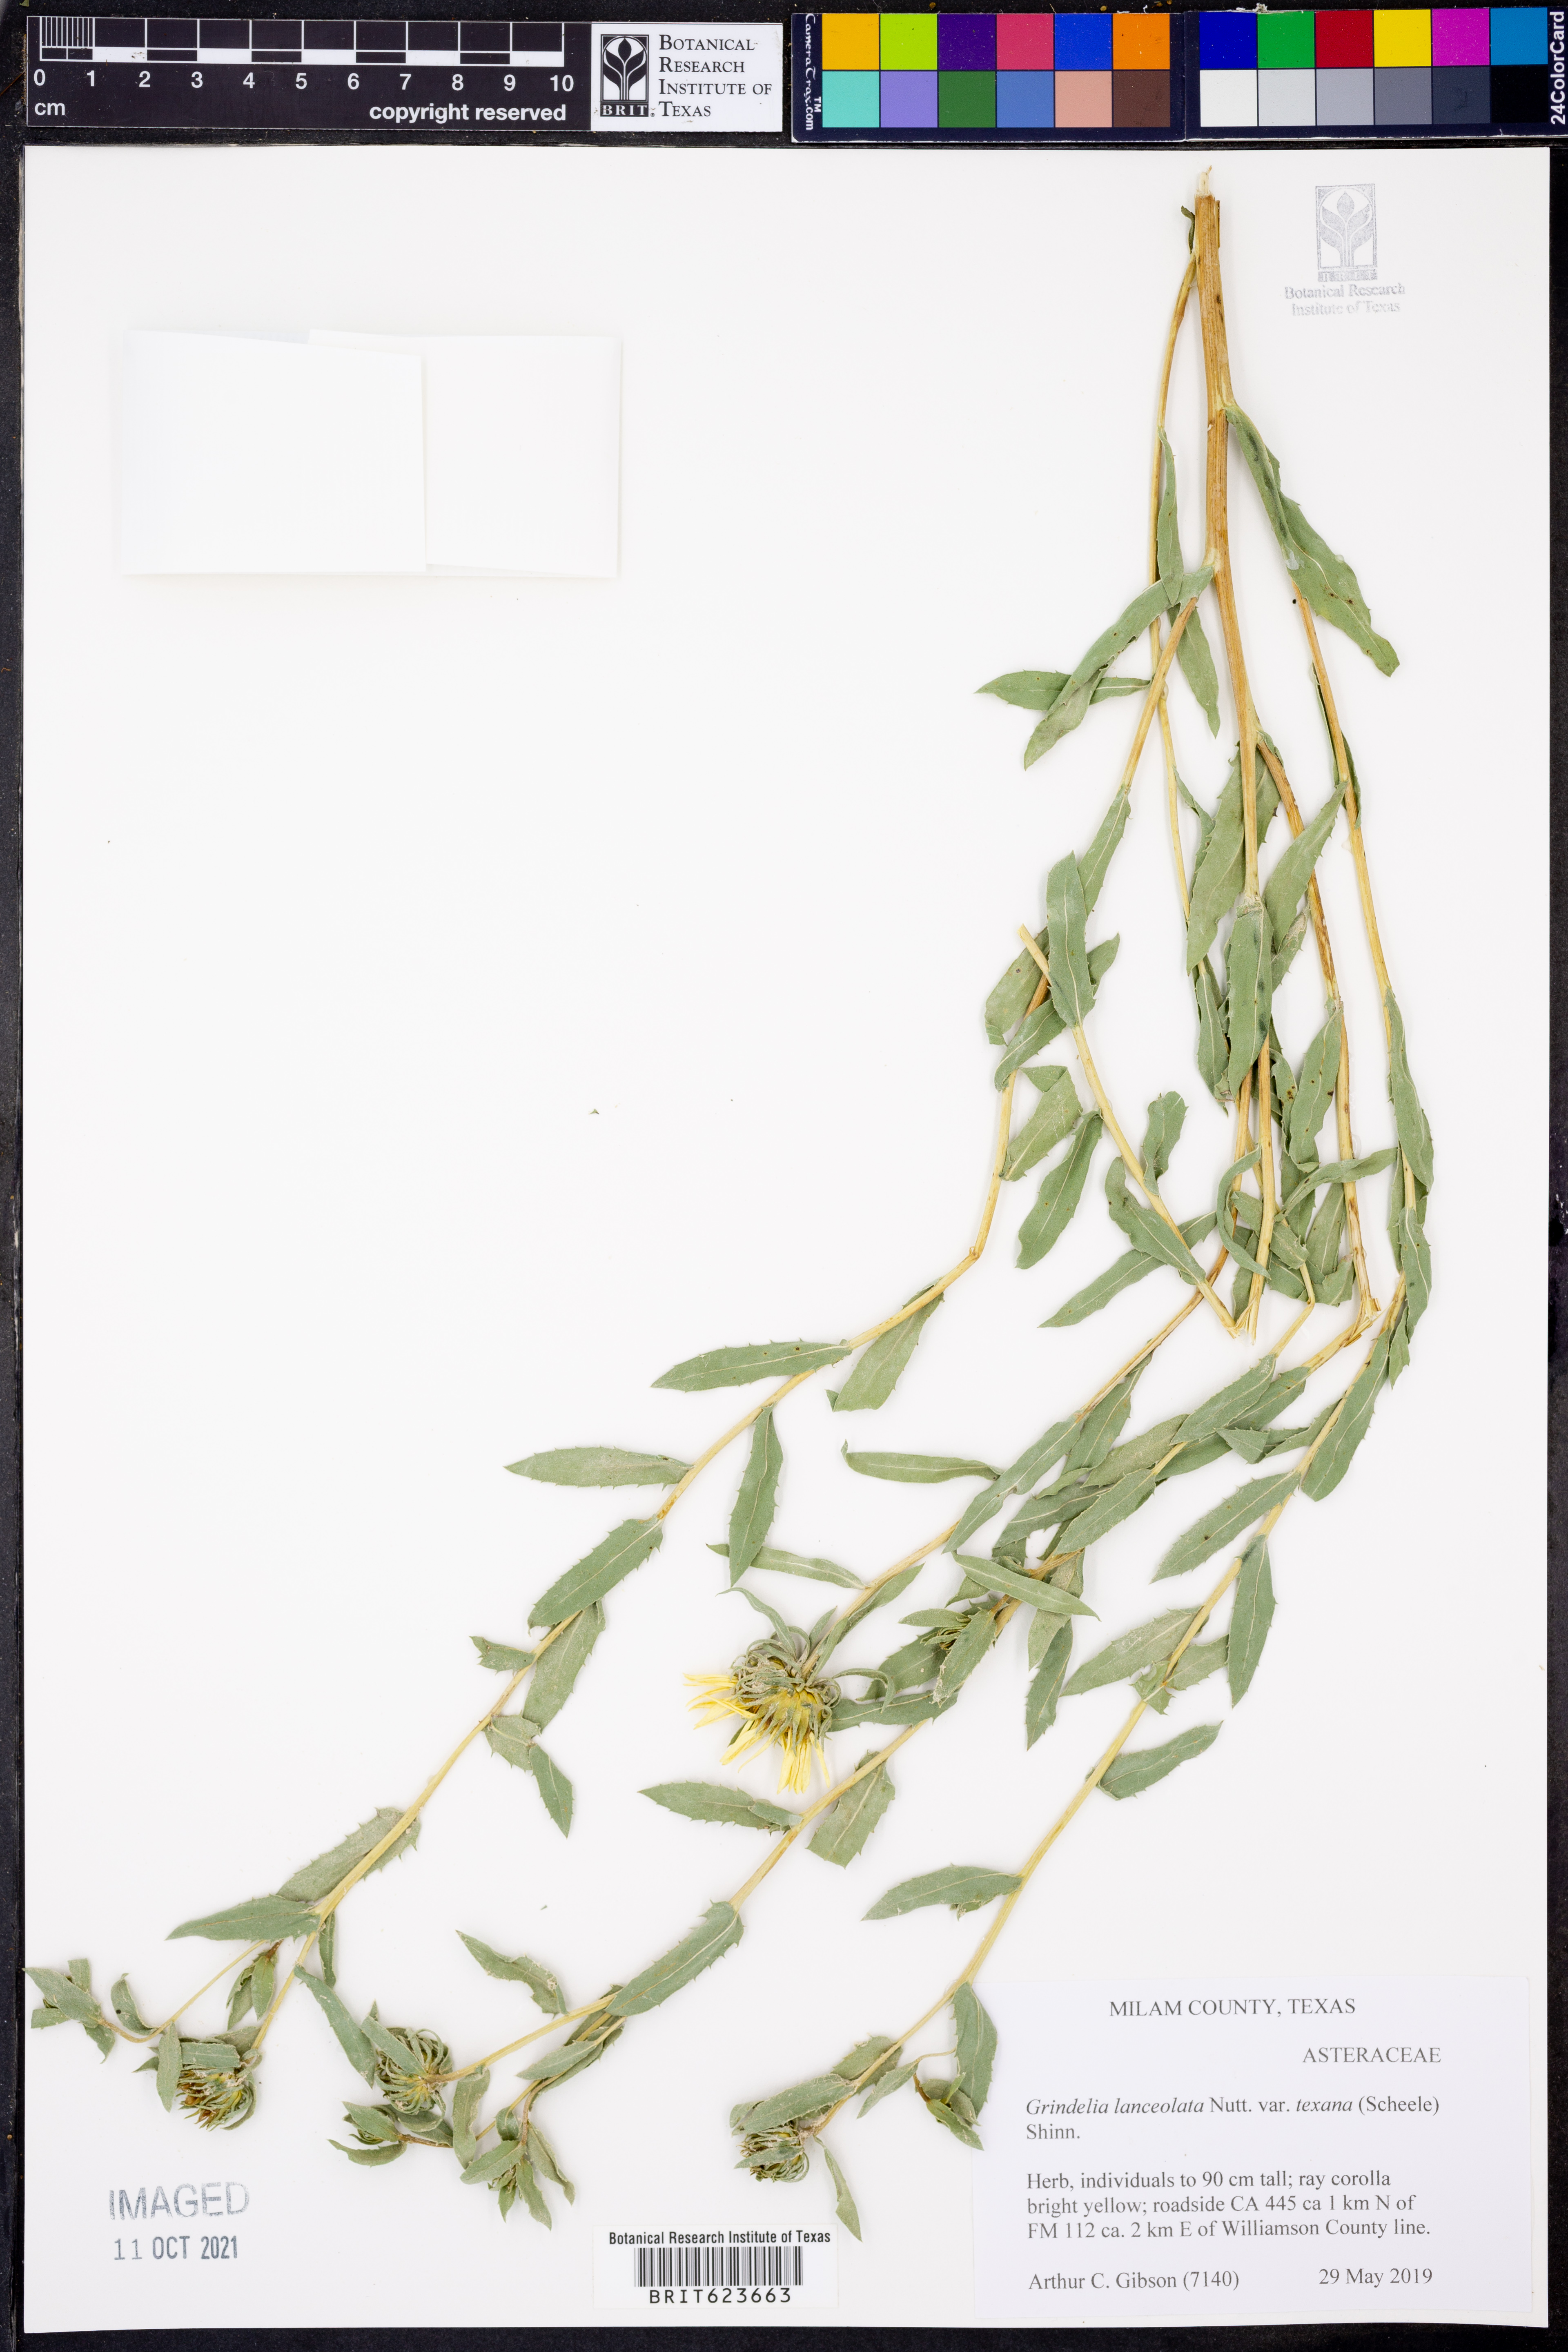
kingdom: Plantae
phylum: Tracheophyta
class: Magnoliopsida
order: Asterales
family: Asteraceae
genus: Grindelia
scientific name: Grindelia texana
